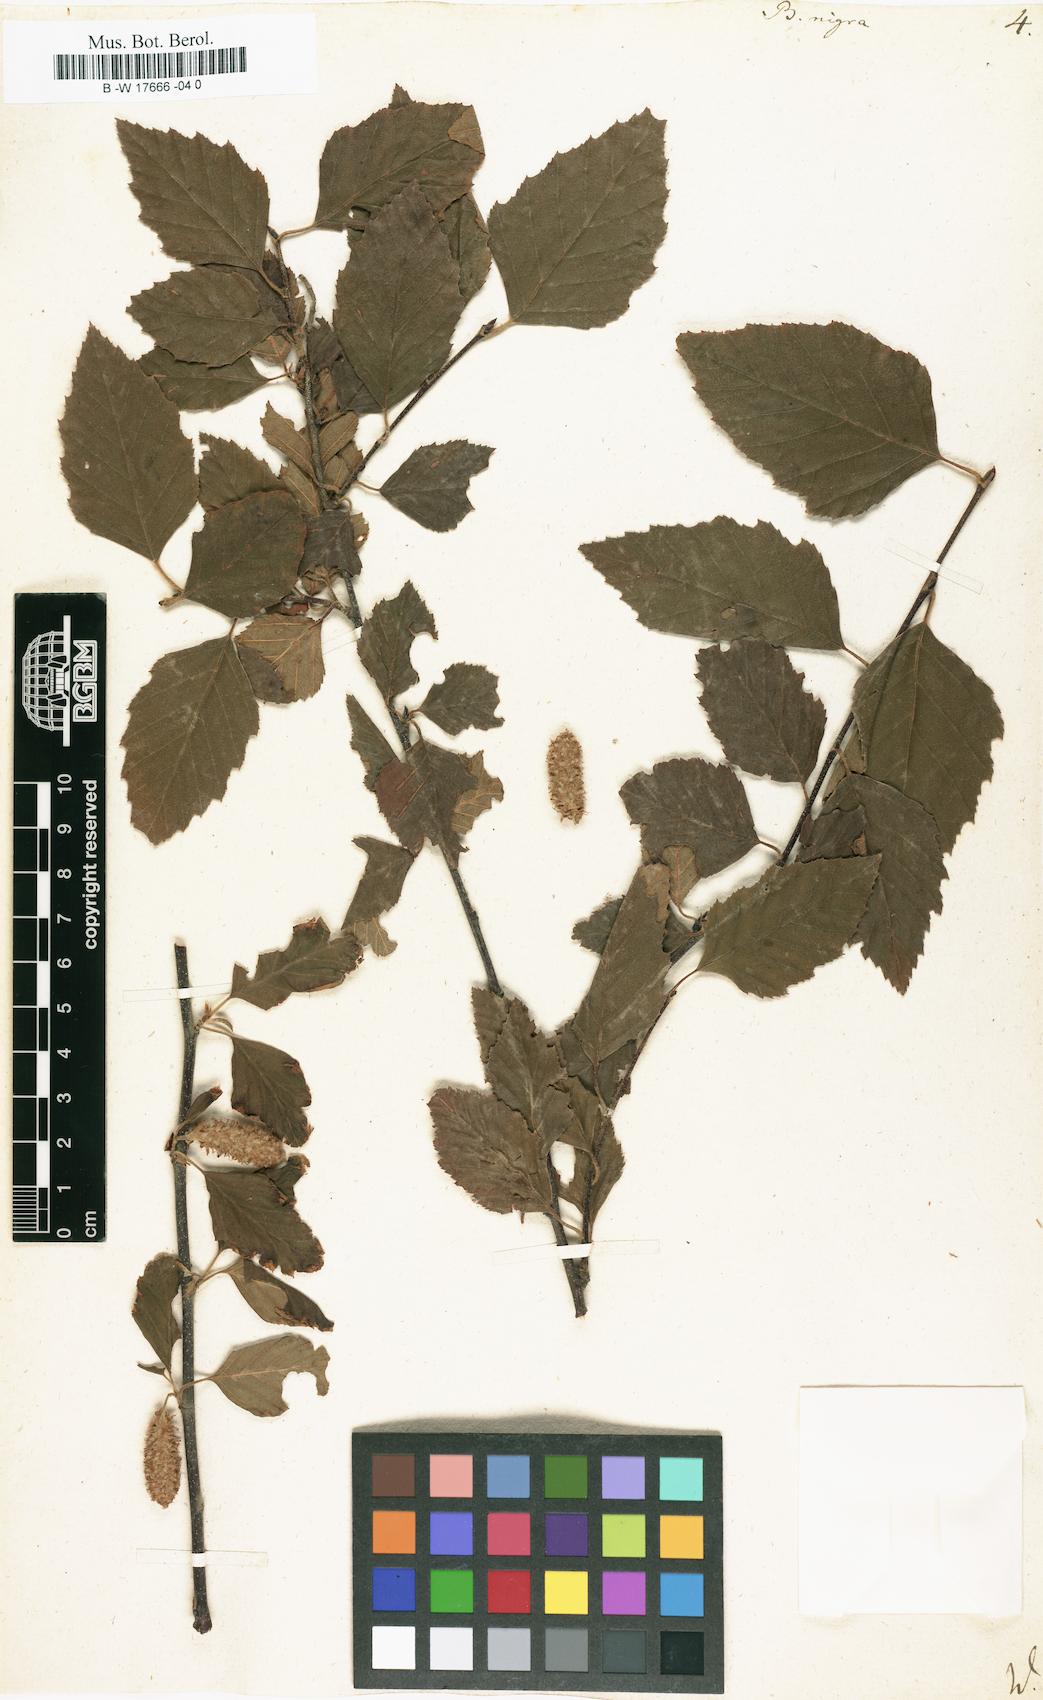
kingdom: Plantae
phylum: Tracheophyta
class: Magnoliopsida
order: Fagales
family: Betulaceae
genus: Betula
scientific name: Betula nigra
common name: Black birch
